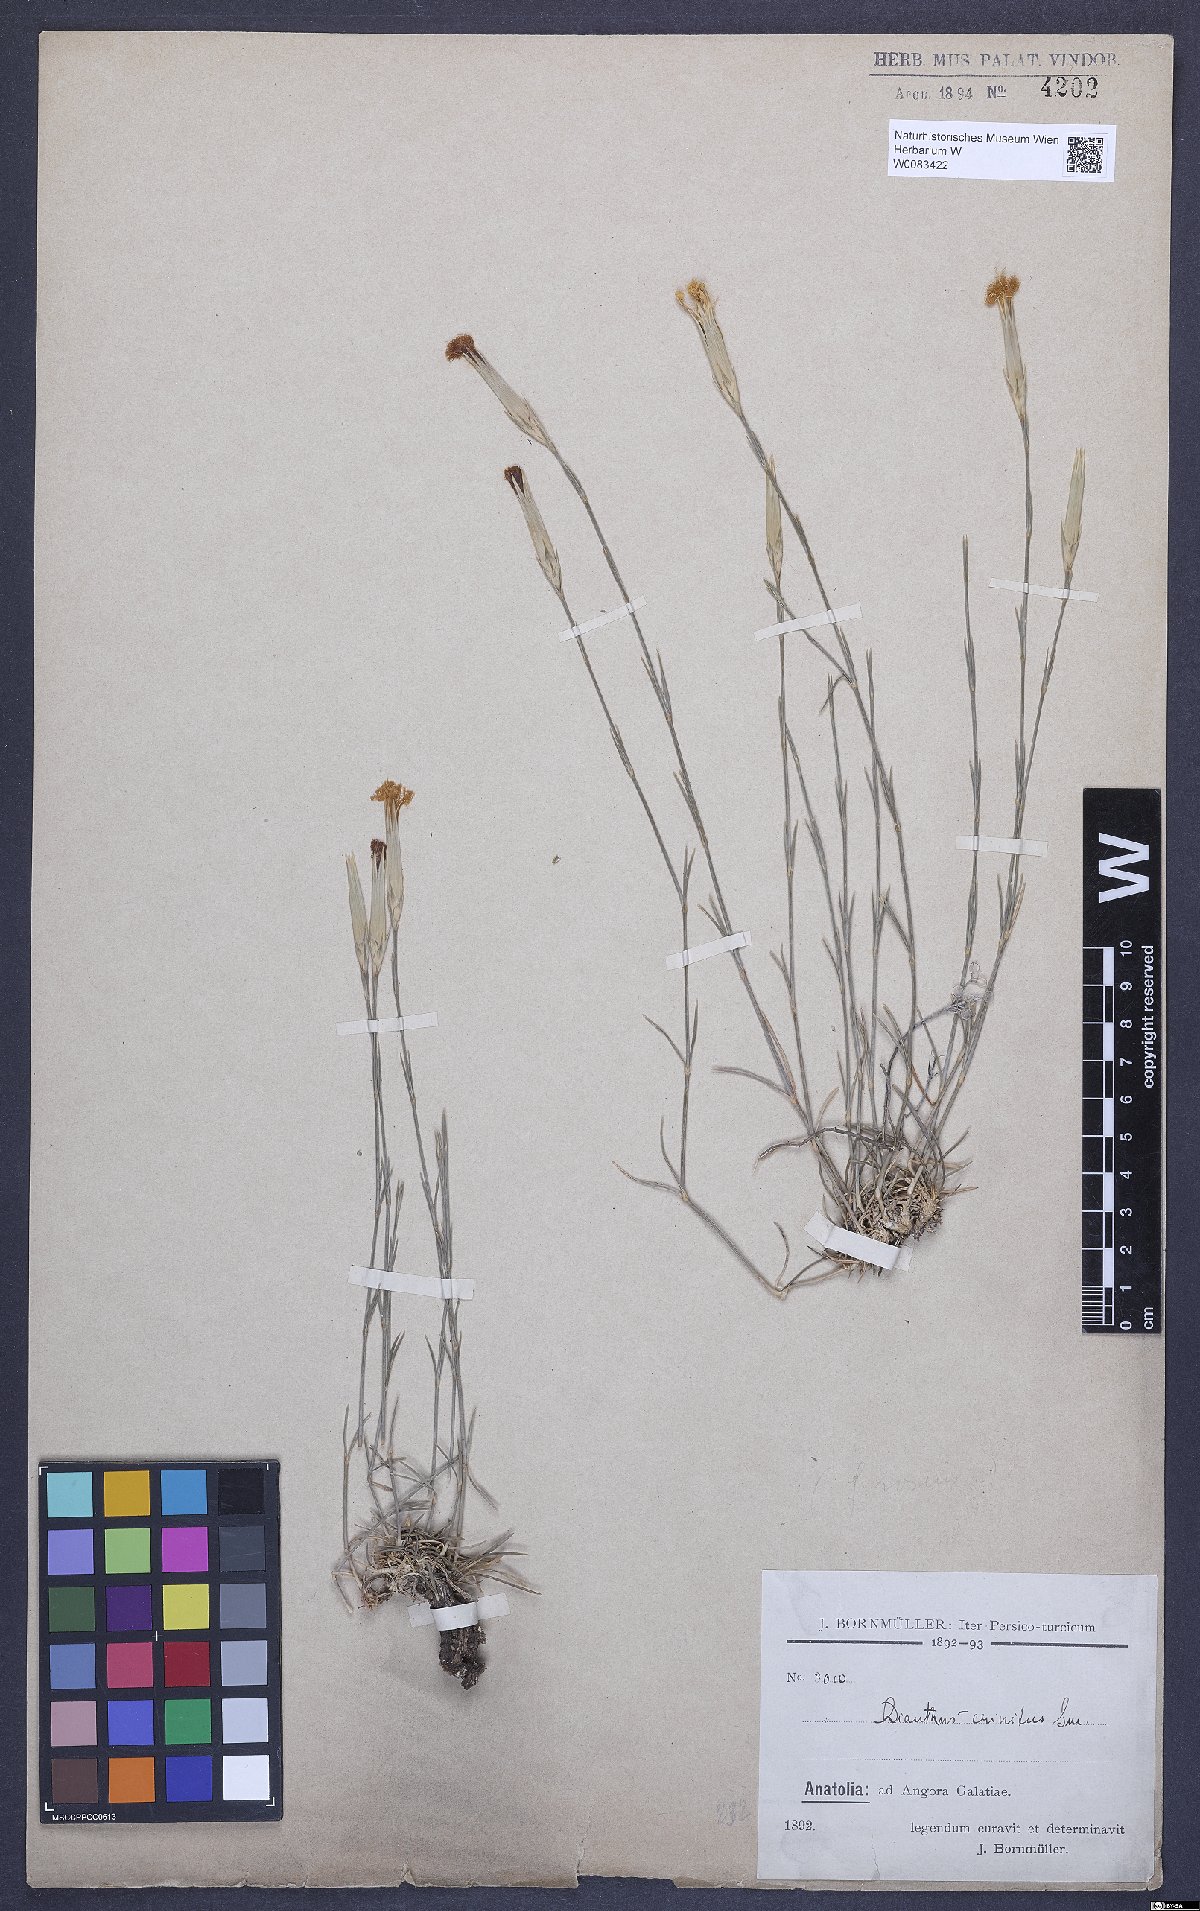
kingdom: Plantae
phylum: Tracheophyta
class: Magnoliopsida
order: Caryophyllales
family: Caryophyllaceae
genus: Dianthus
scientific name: Dianthus crinitus
